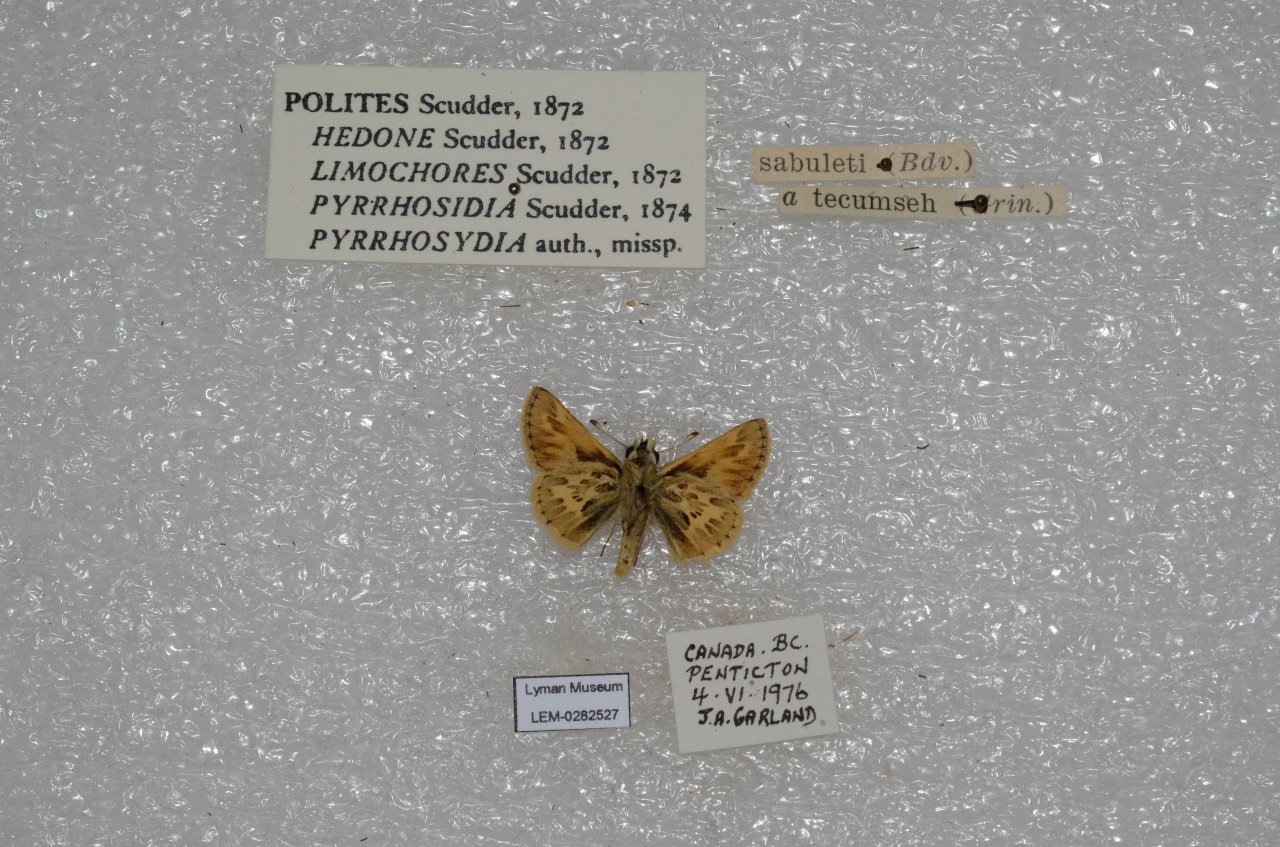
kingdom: Animalia
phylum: Arthropoda
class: Insecta
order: Lepidoptera
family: Hesperiidae
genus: Polites
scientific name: Polites sabuleti
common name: Sandhill Skipper
